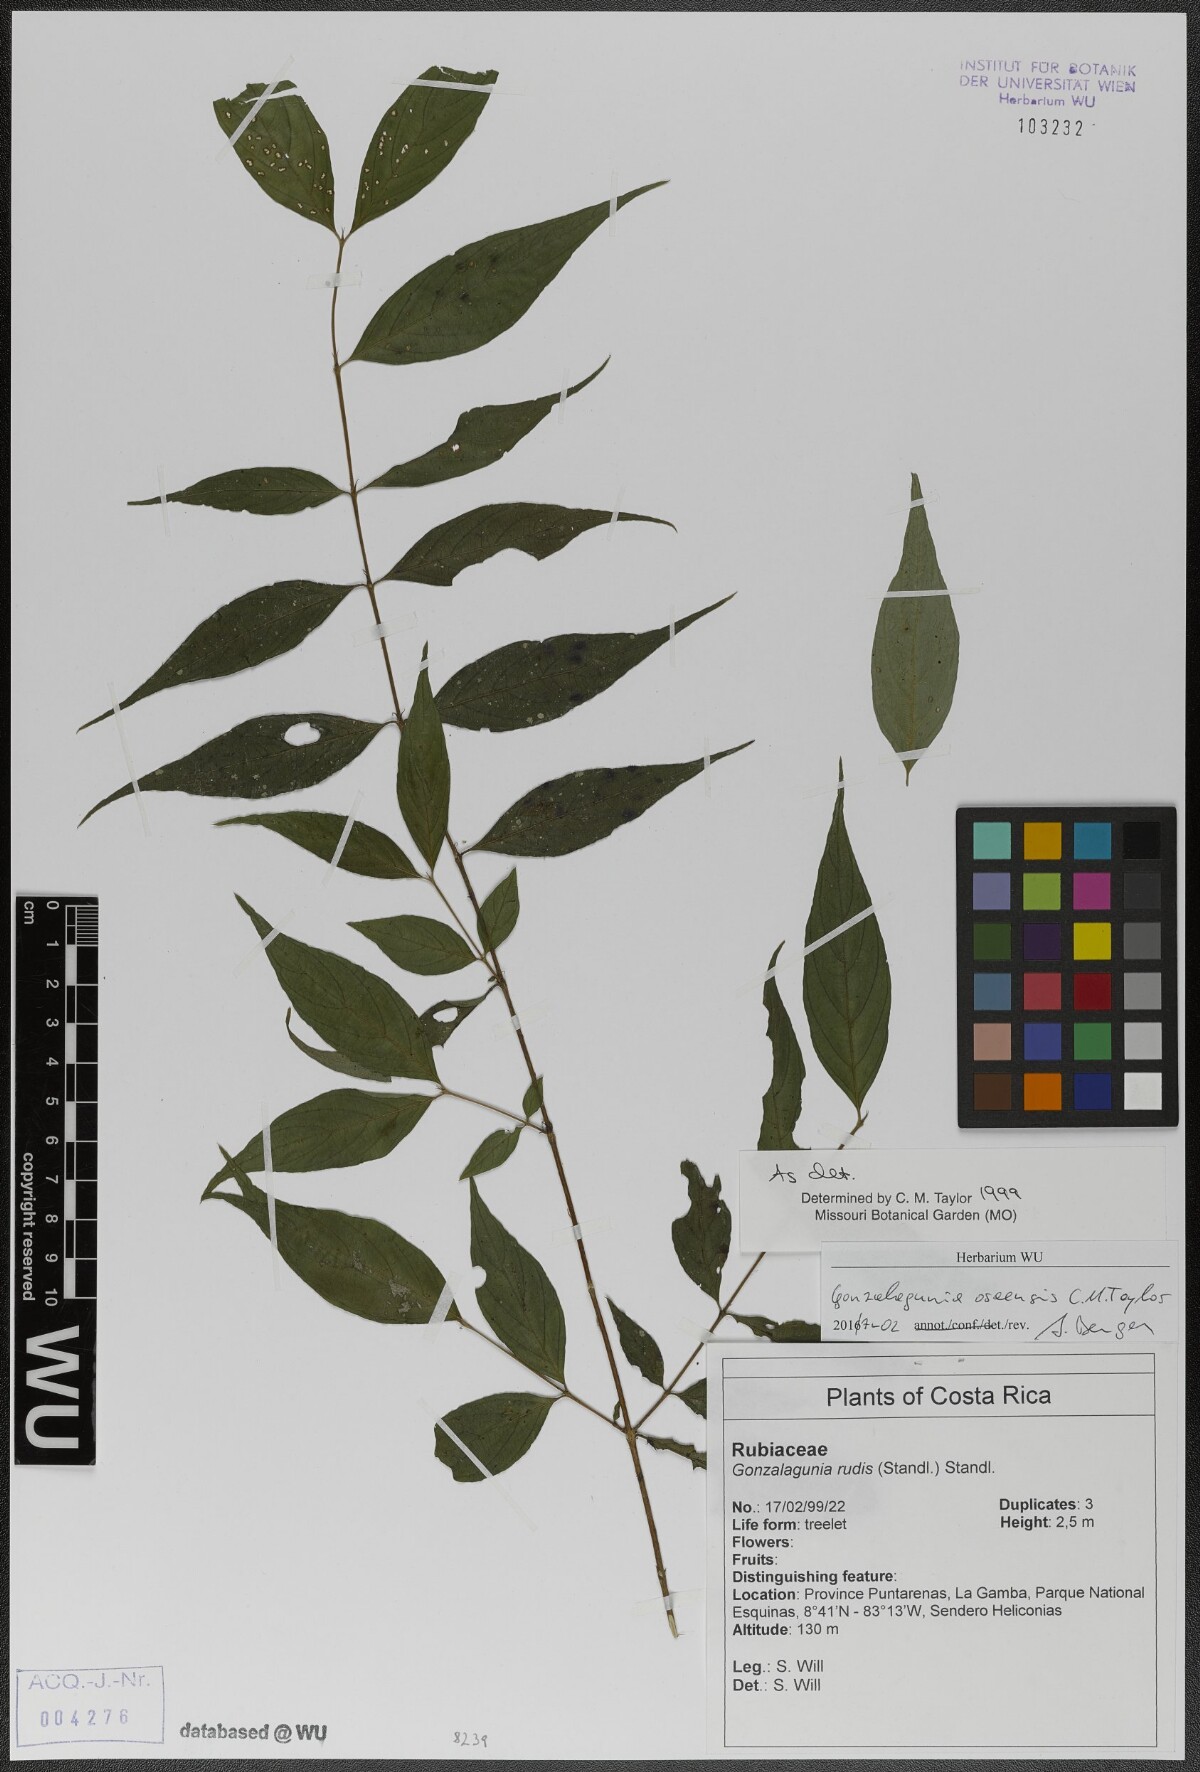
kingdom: Plantae
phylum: Tracheophyta
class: Magnoliopsida
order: Gentianales
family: Rubiaceae
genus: Gonzalagunia
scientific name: Gonzalagunia osaensis
